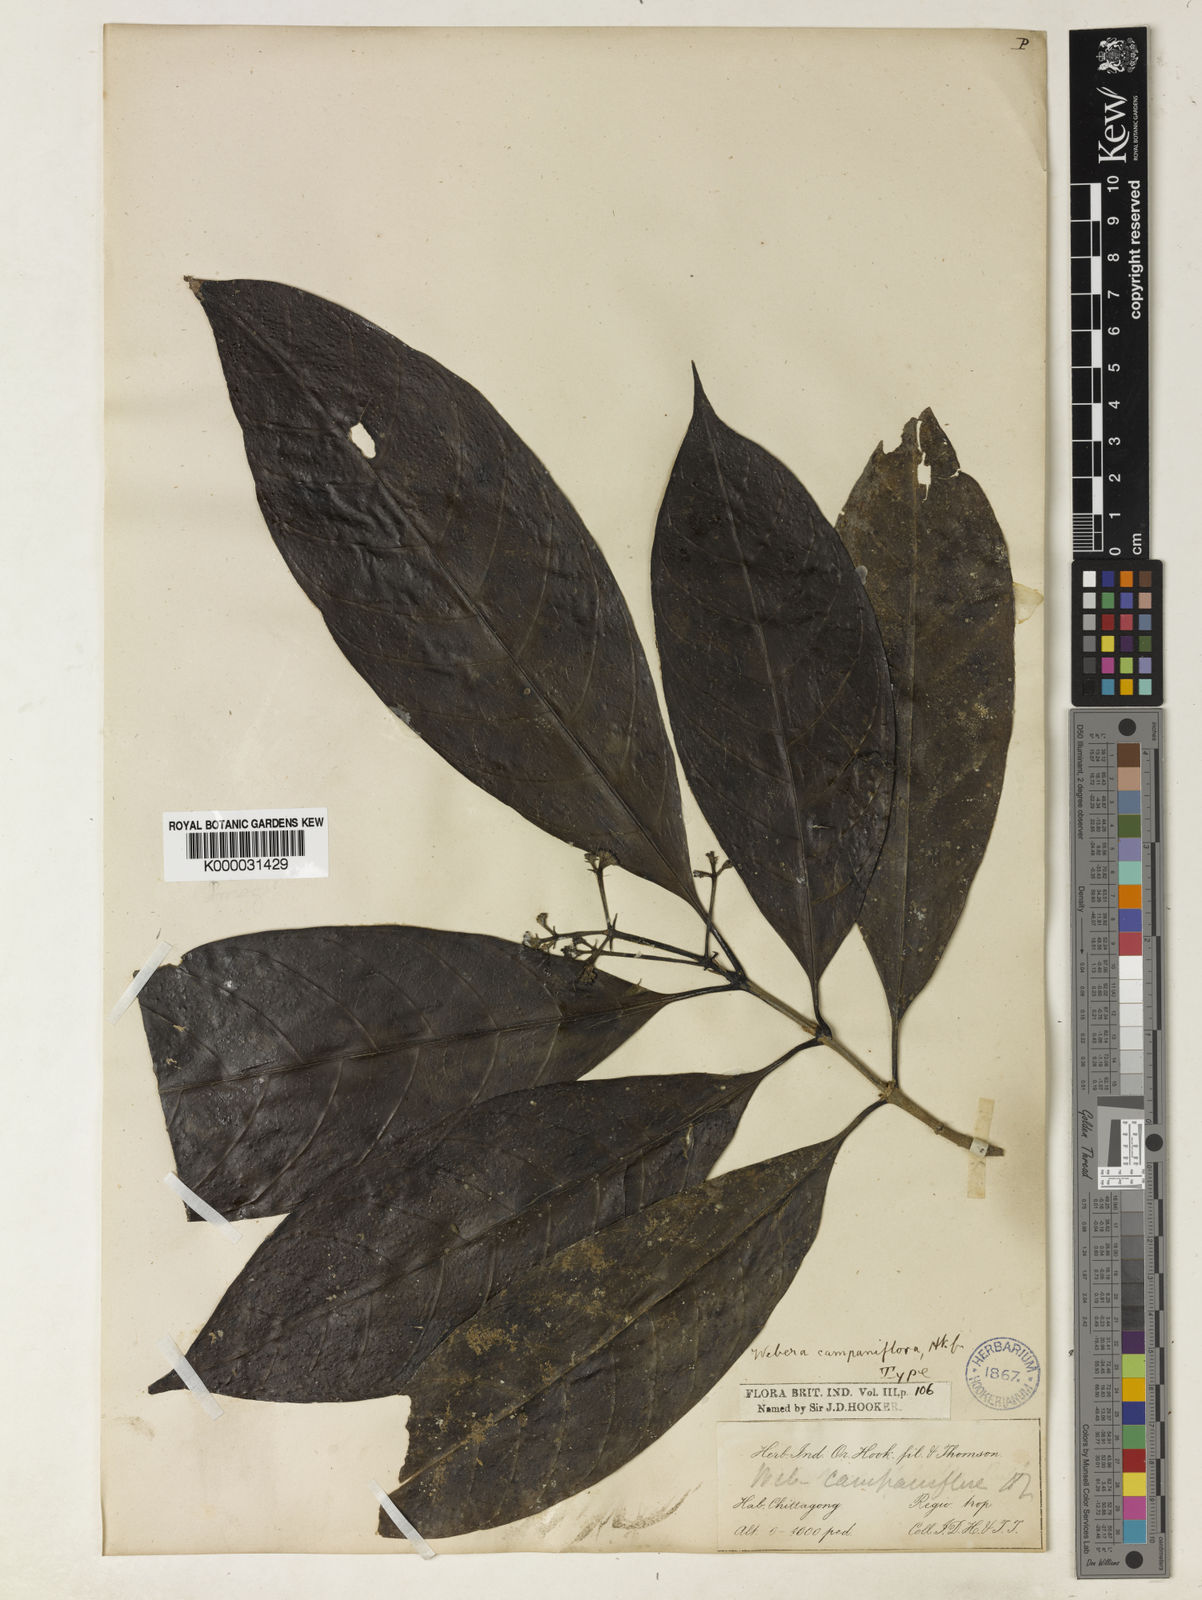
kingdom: Plantae
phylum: Tracheophyta
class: Magnoliopsida
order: Gentianales
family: Rubiaceae
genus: Tarenna
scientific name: Tarenna helferi
